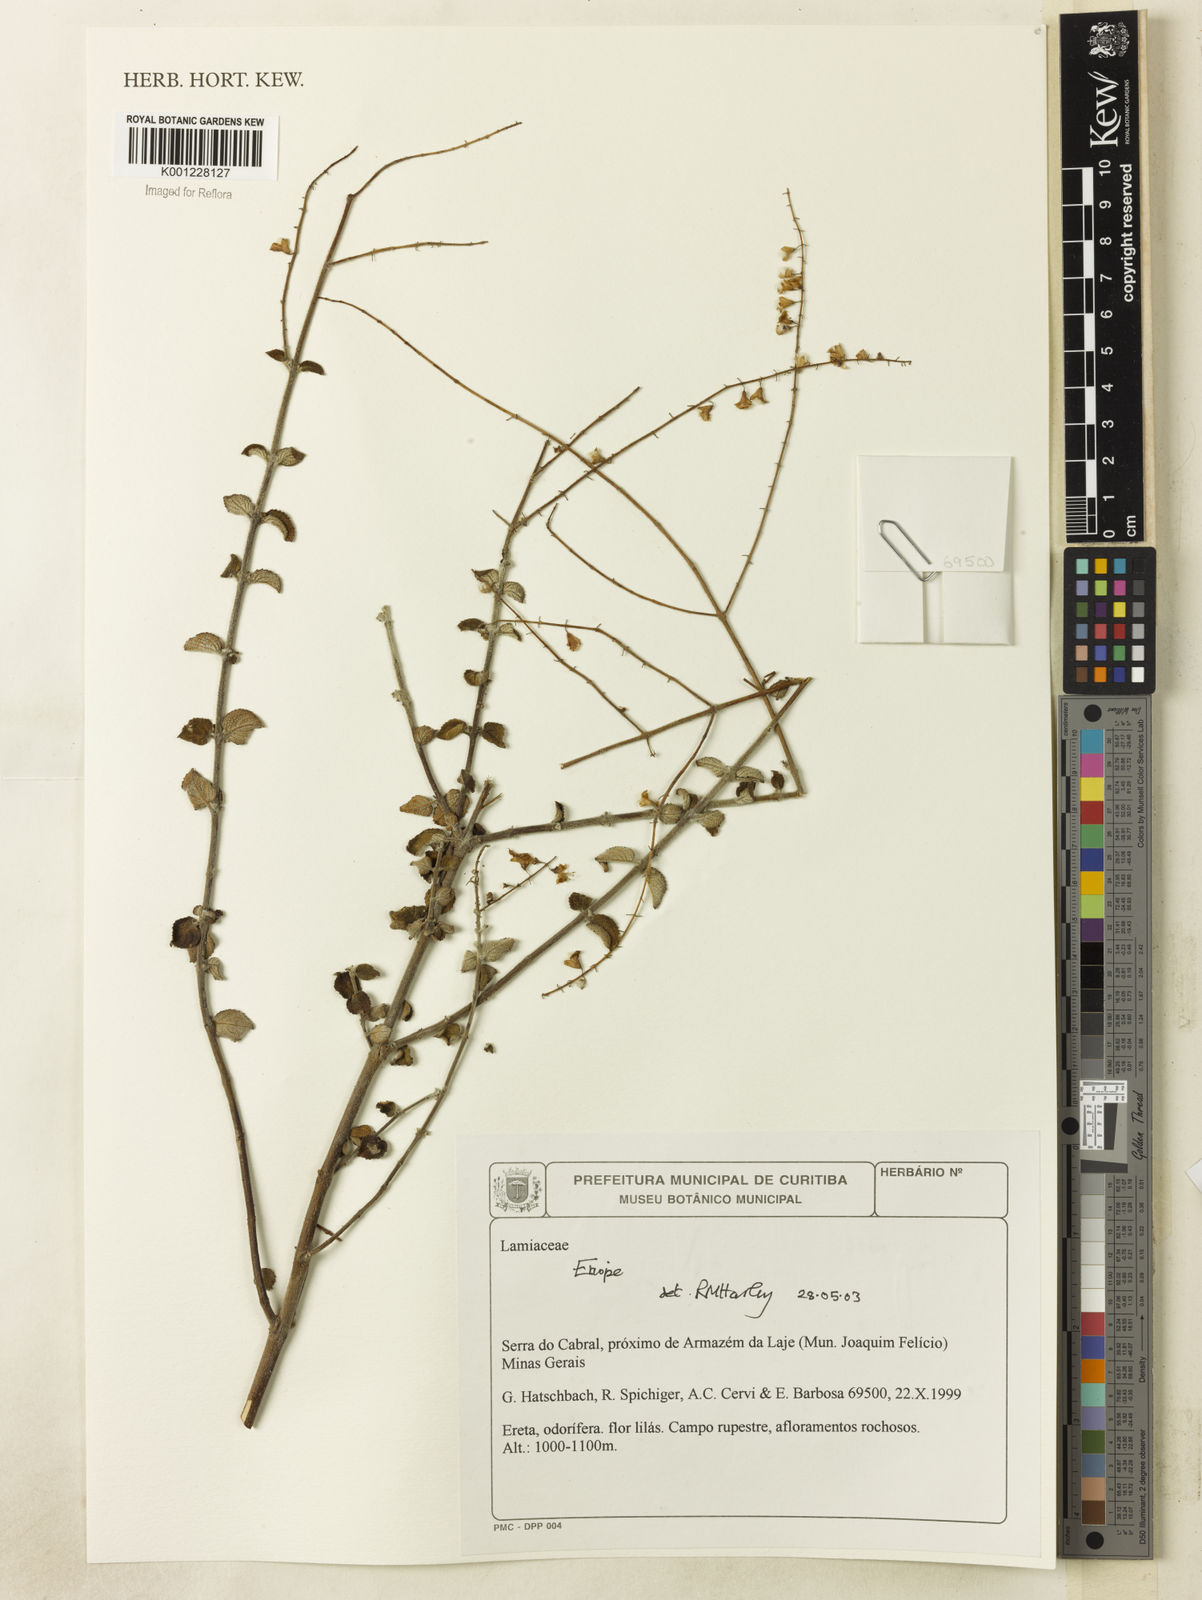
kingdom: Plantae
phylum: Tracheophyta
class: Magnoliopsida
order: Lamiales
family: Lamiaceae
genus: Eriope
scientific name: Eriope
